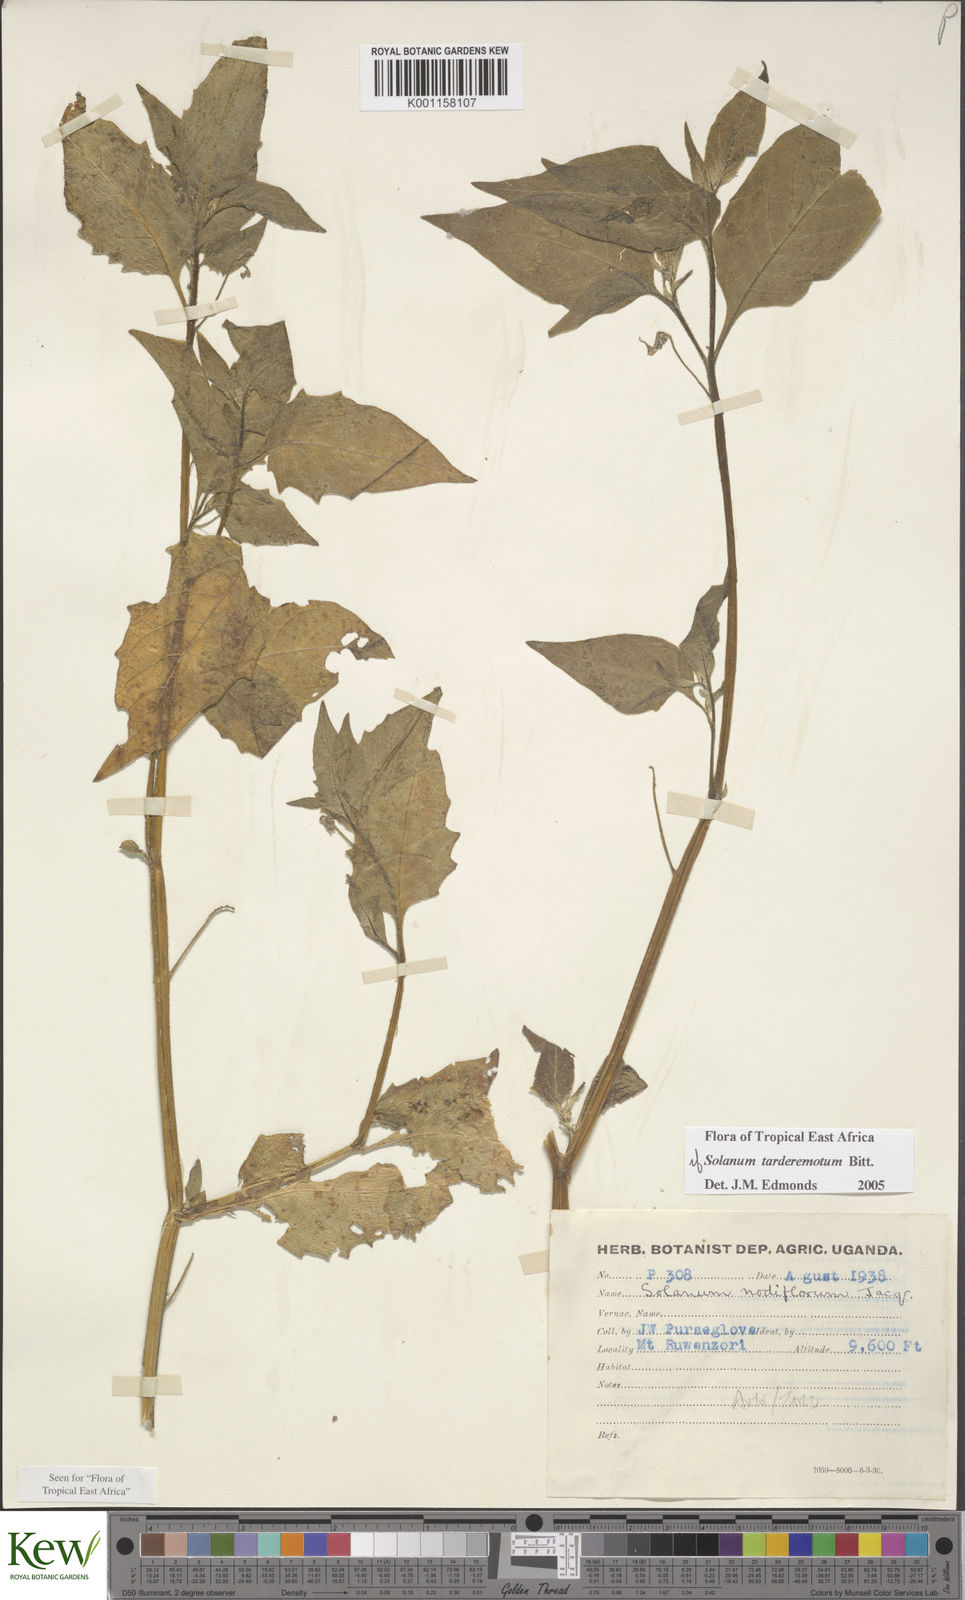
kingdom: Plantae
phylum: Tracheophyta
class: Magnoliopsida
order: Solanales
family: Solanaceae
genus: Solanum
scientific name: Solanum tarderemotum
